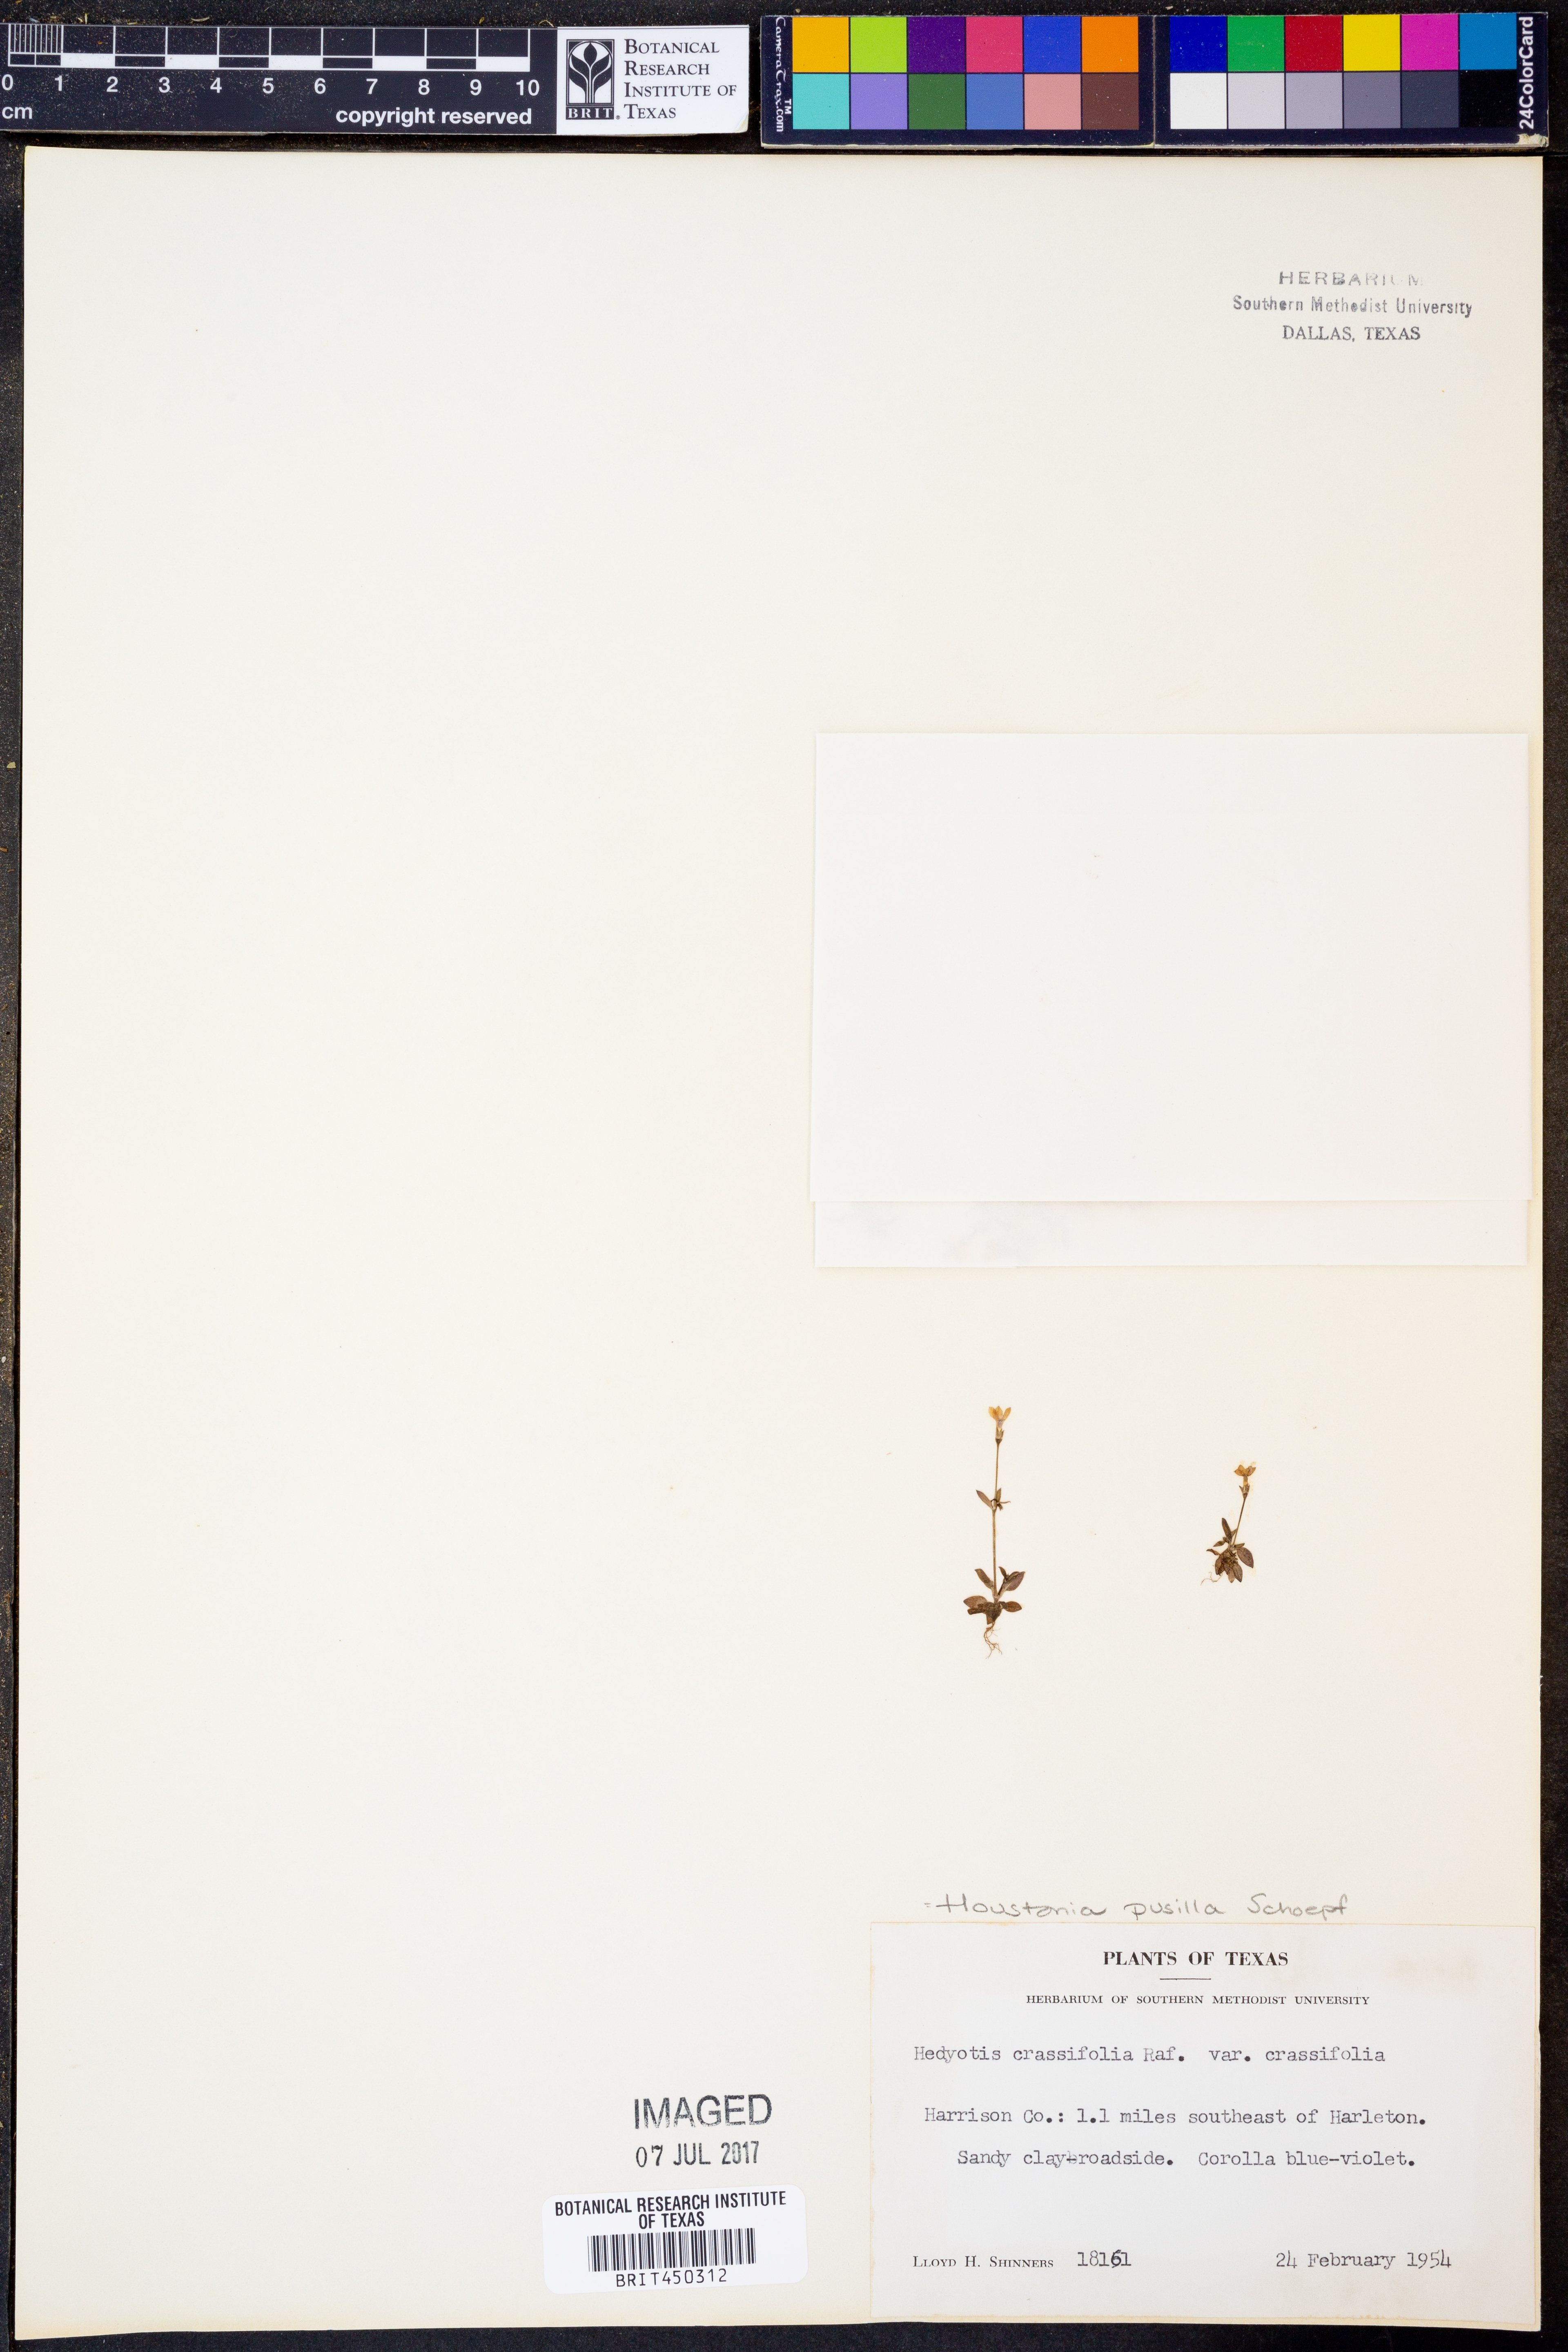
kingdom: Plantae
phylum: Tracheophyta
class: Magnoliopsida
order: Gentianales
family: Rubiaceae
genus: Houstonia
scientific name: Houstonia pusilla
